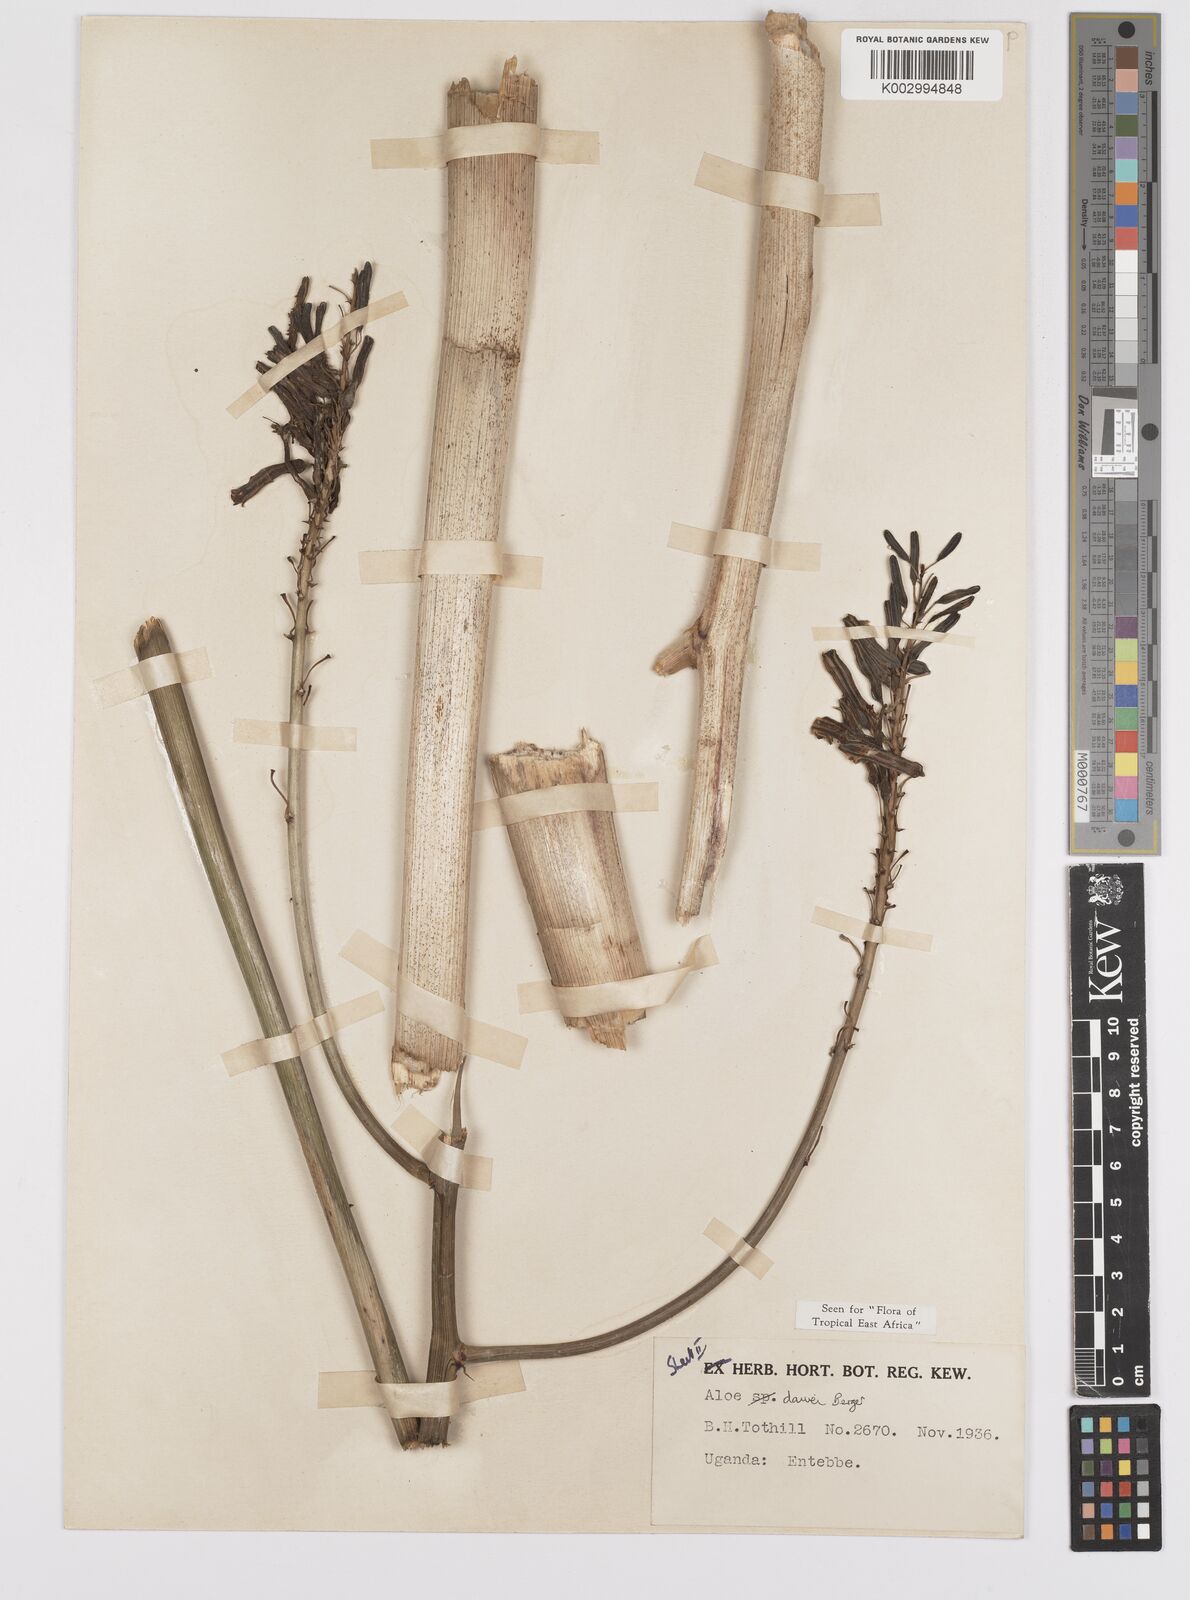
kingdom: Plantae
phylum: Tracheophyta
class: Liliopsida
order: Asparagales
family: Asphodelaceae
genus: Aloe
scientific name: Aloe dawei
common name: Orange flame aloe
